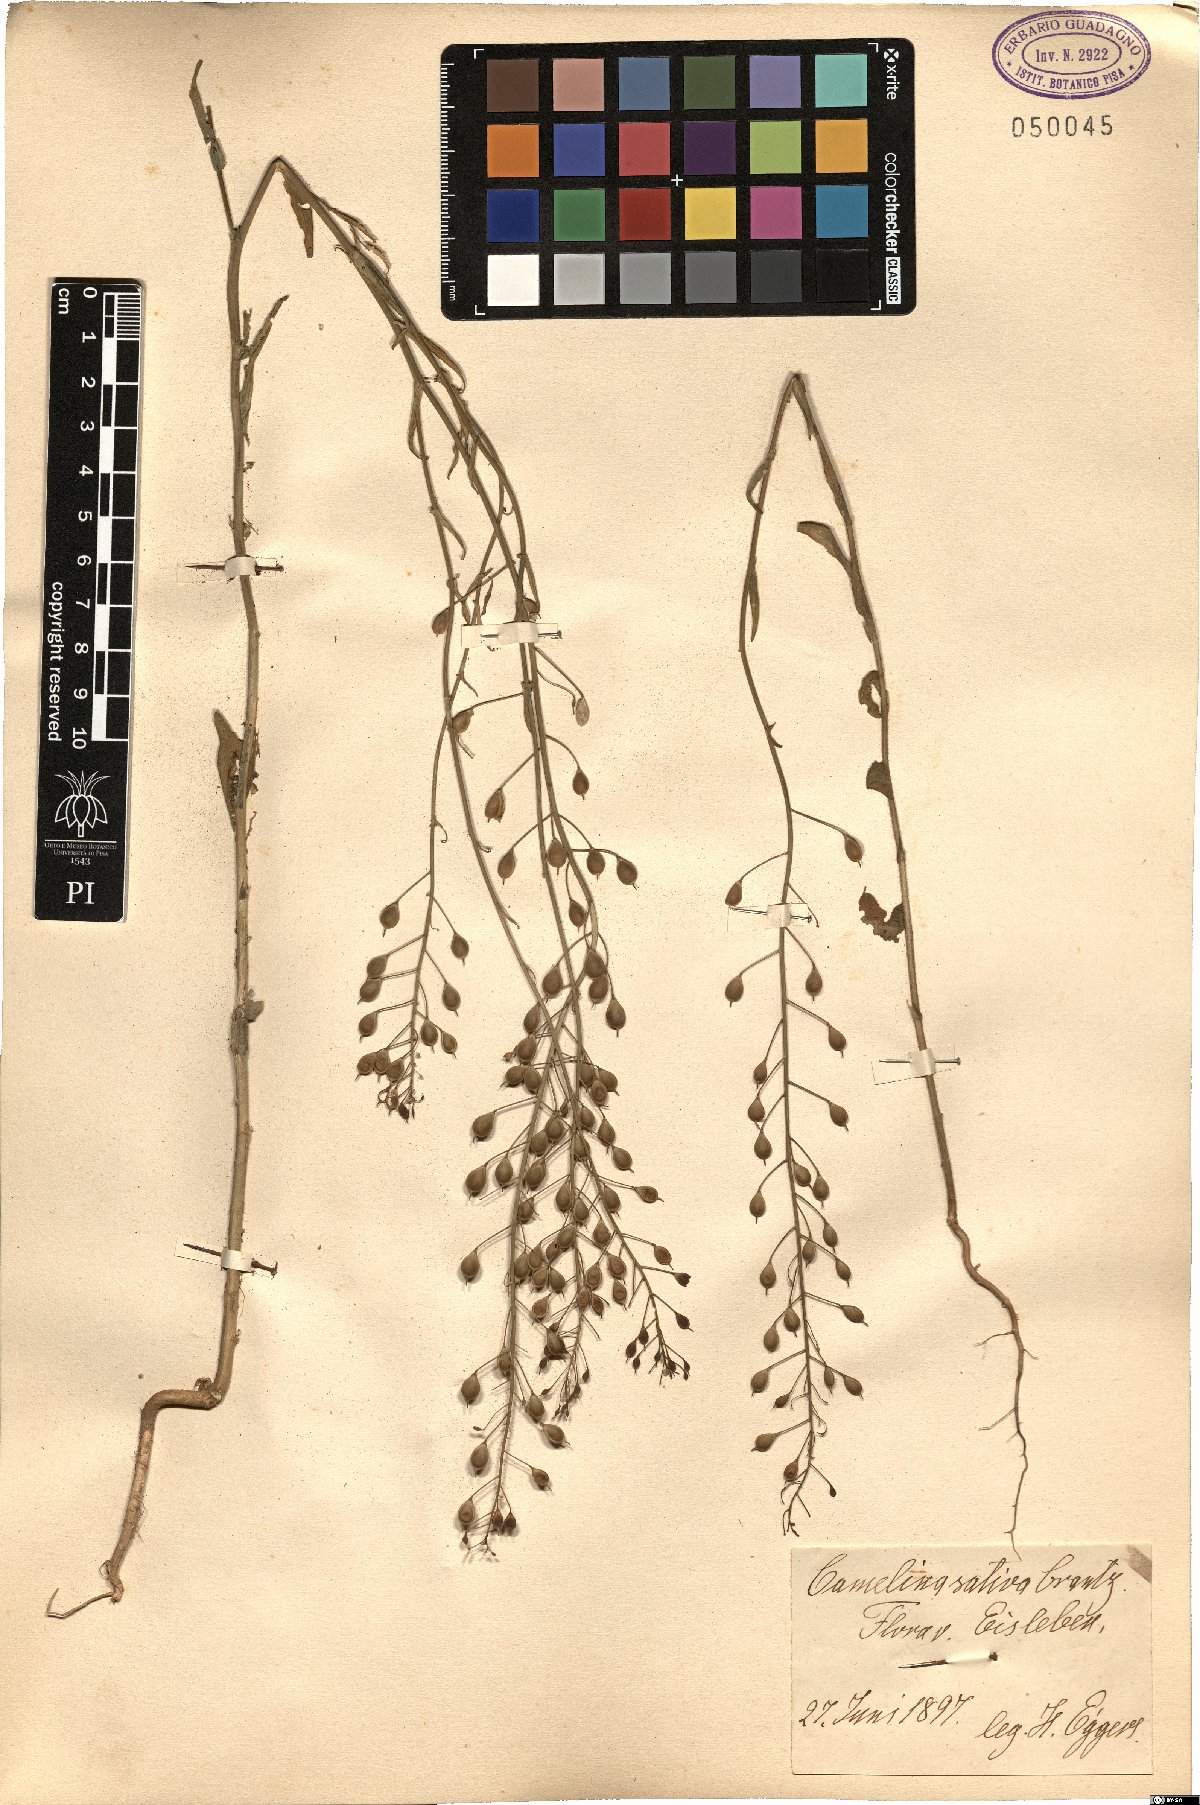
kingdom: Plantae
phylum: Tracheophyta
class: Magnoliopsida
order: Brassicales
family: Brassicaceae
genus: Camelina
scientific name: Camelina sativa
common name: Gold-of-pleasure
